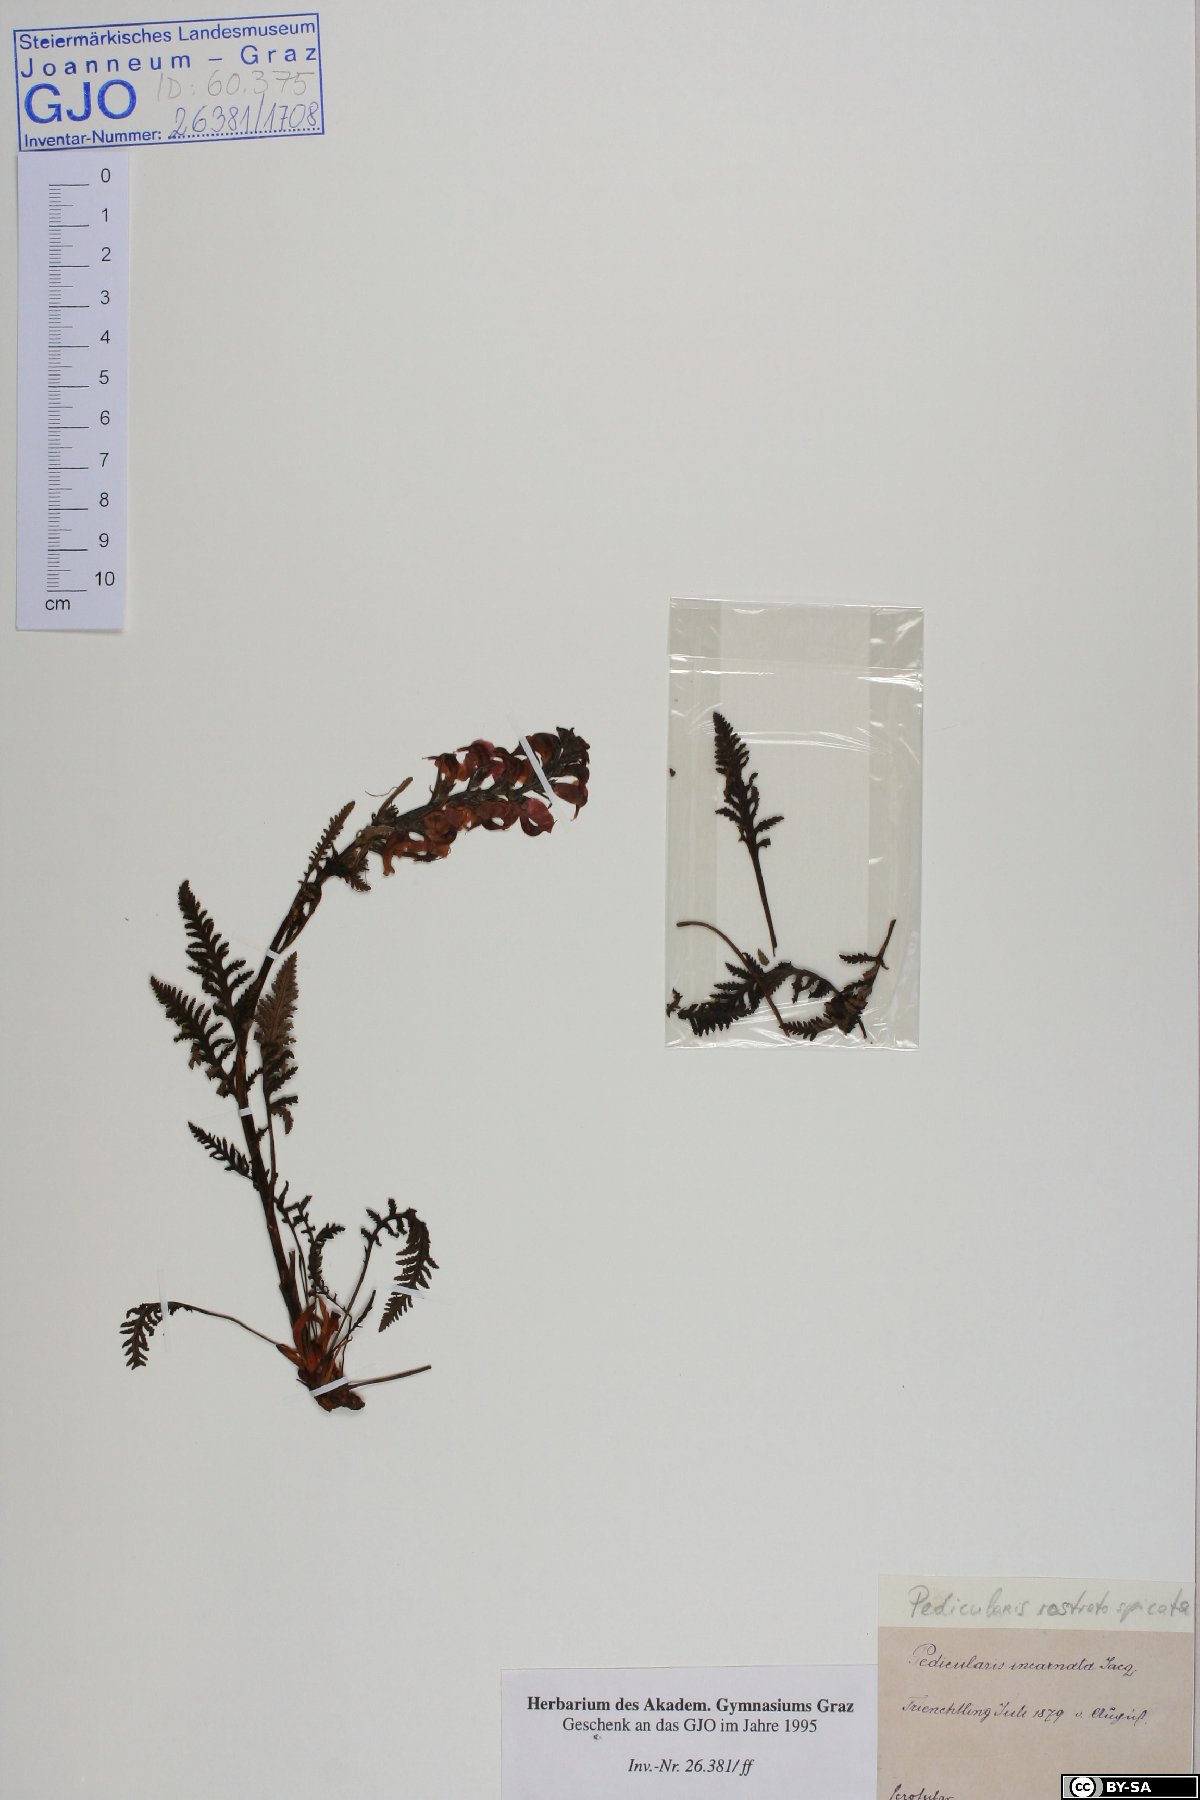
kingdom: Plantae
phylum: Tracheophyta
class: Magnoliopsida
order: Lamiales
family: Orobanchaceae
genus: Pedicularis
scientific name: Pedicularis rostratospicata
